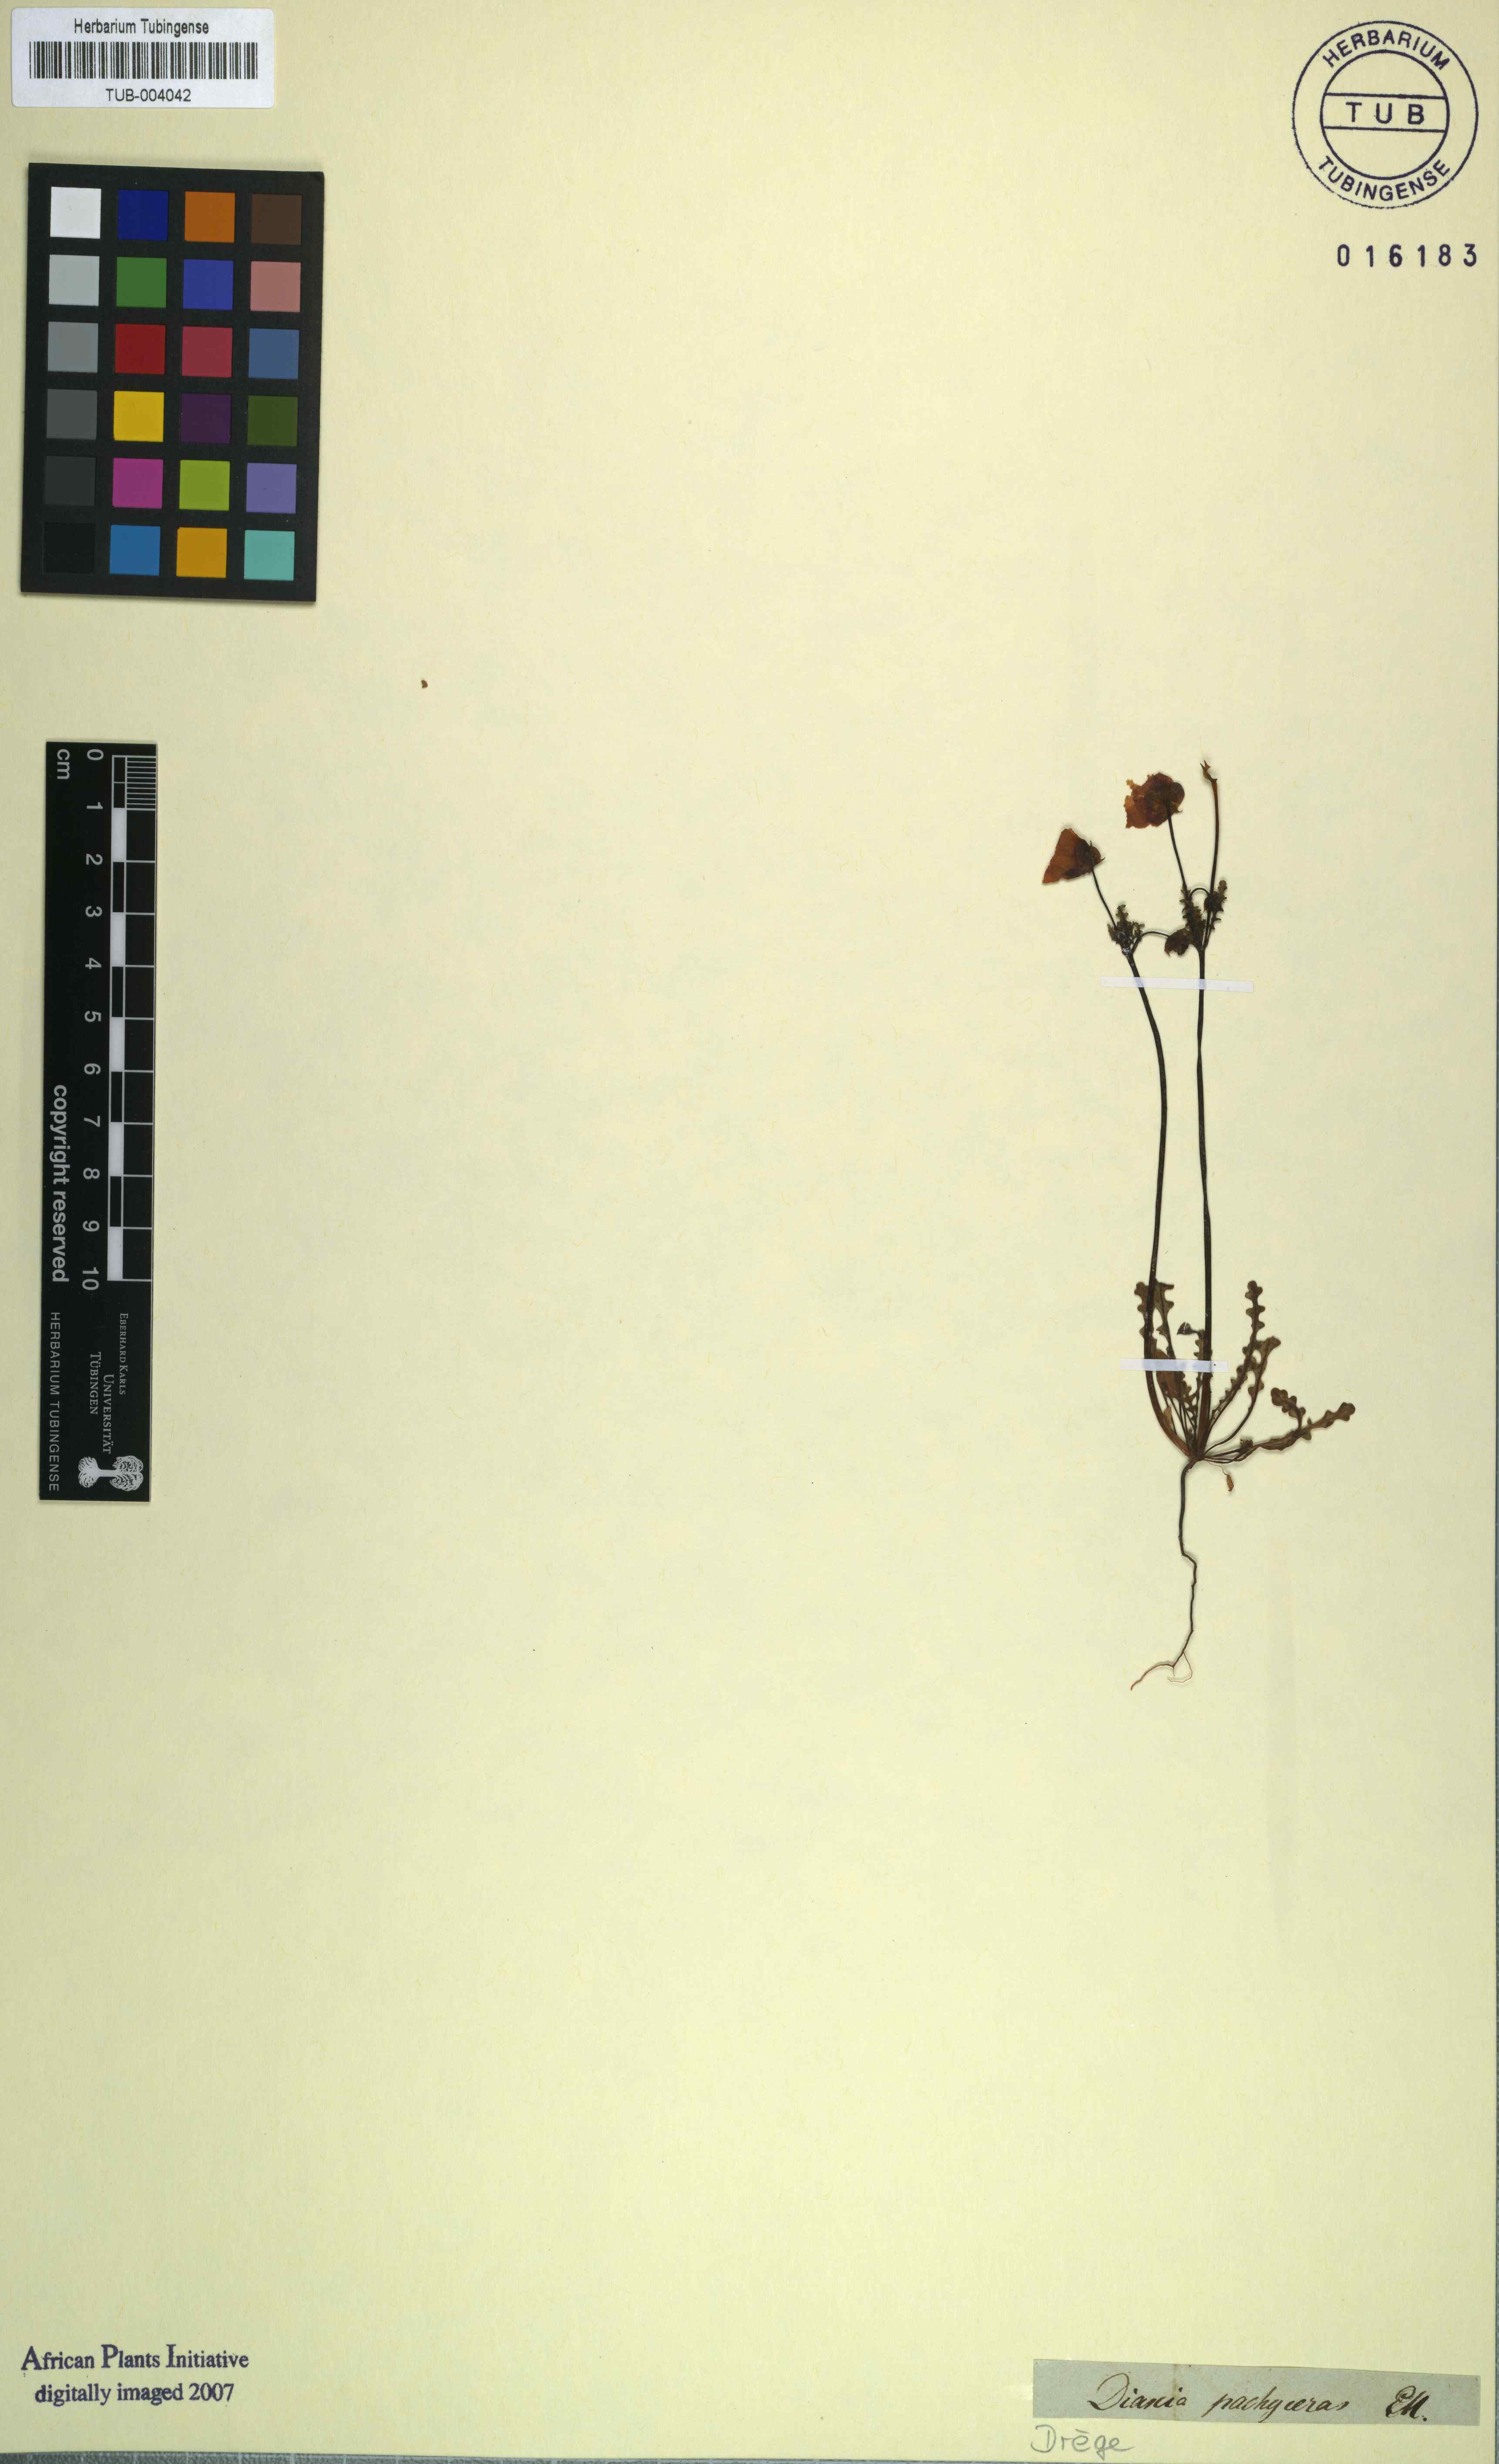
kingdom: Plantae
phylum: Tracheophyta
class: Magnoliopsida
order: Lamiales
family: Scrophulariaceae
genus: Diascia
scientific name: Diascia pachyceras
